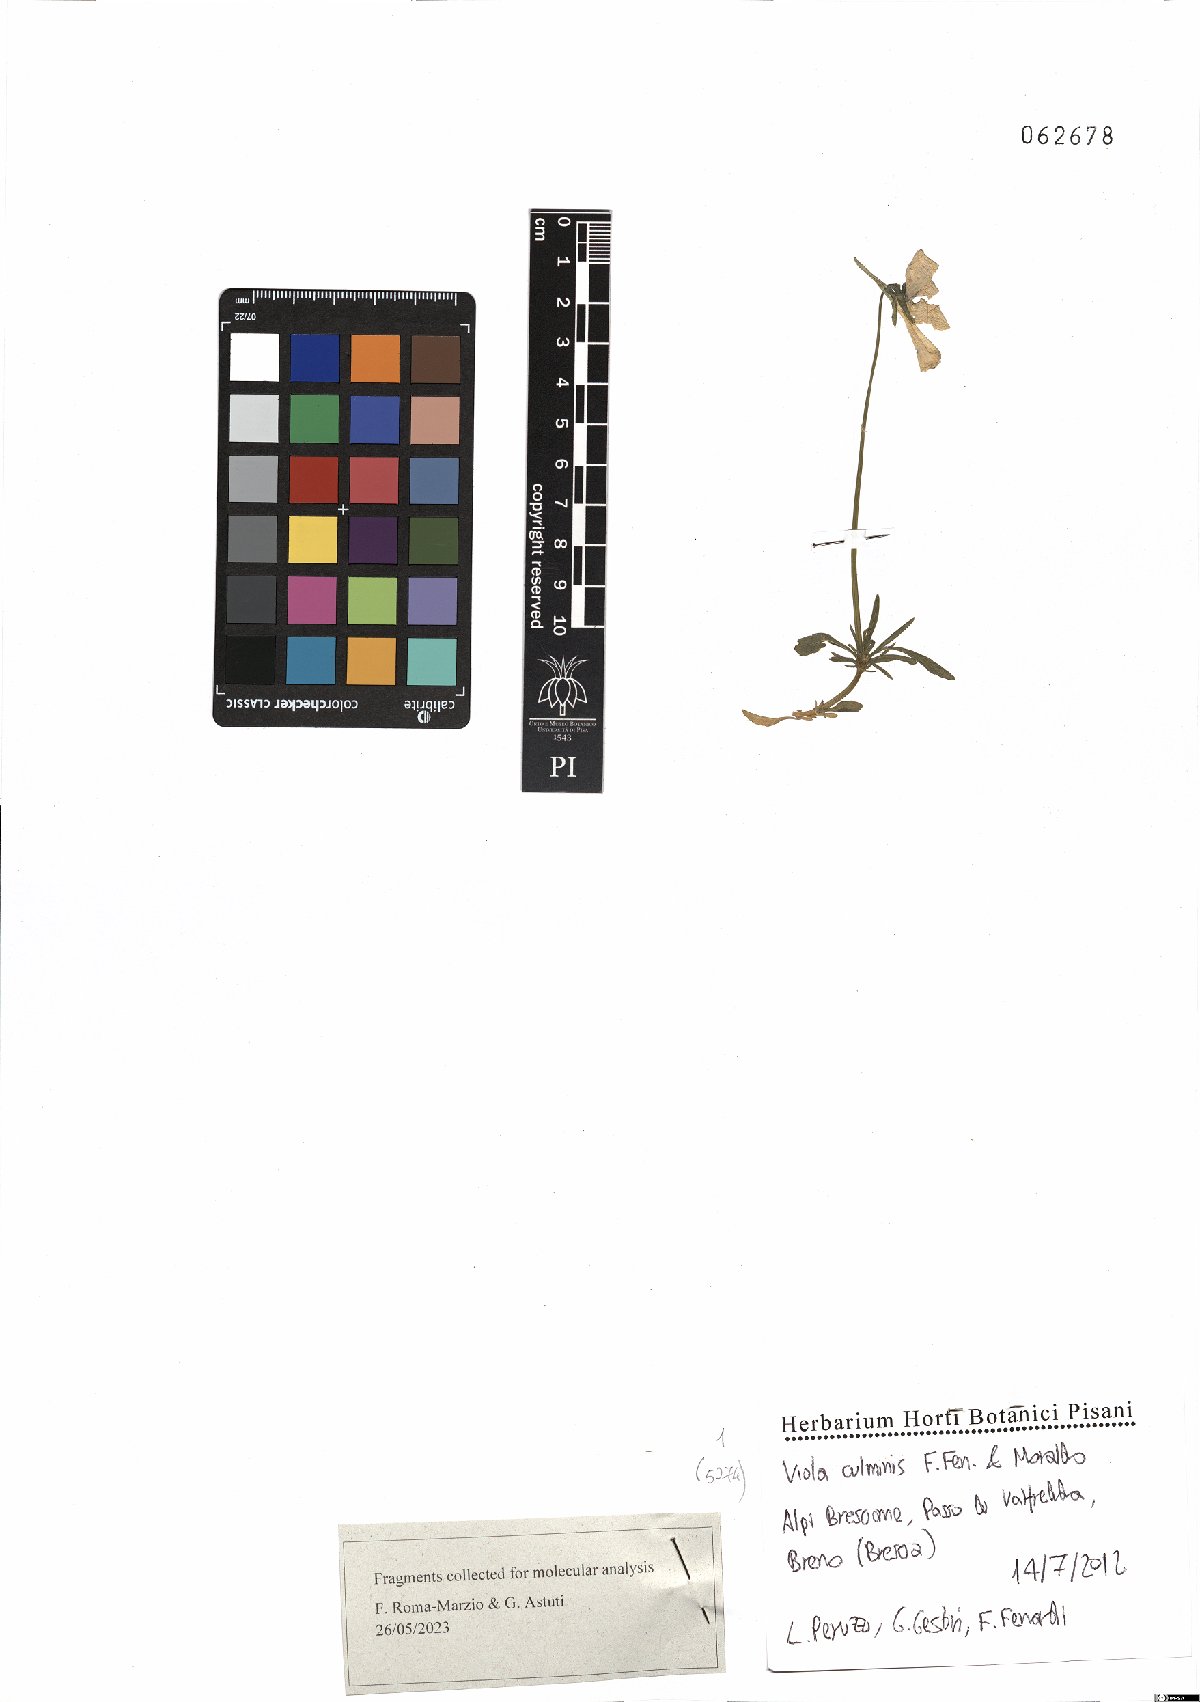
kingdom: Plantae
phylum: Tracheophyta
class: Magnoliopsida
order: Malpighiales
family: Violaceae
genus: Viola
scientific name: Viola culminis
